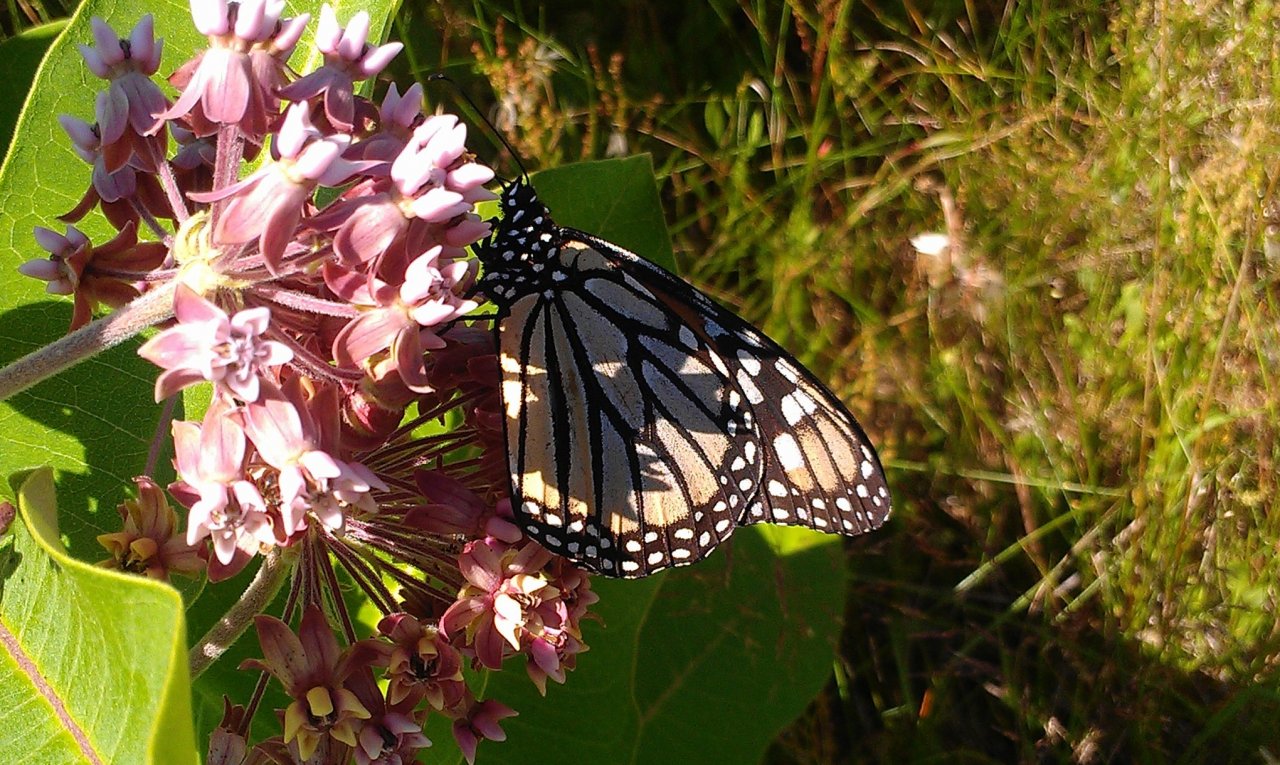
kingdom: Animalia
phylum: Arthropoda
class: Insecta
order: Lepidoptera
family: Nymphalidae
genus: Danaus
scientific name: Danaus plexippus
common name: Monarch
